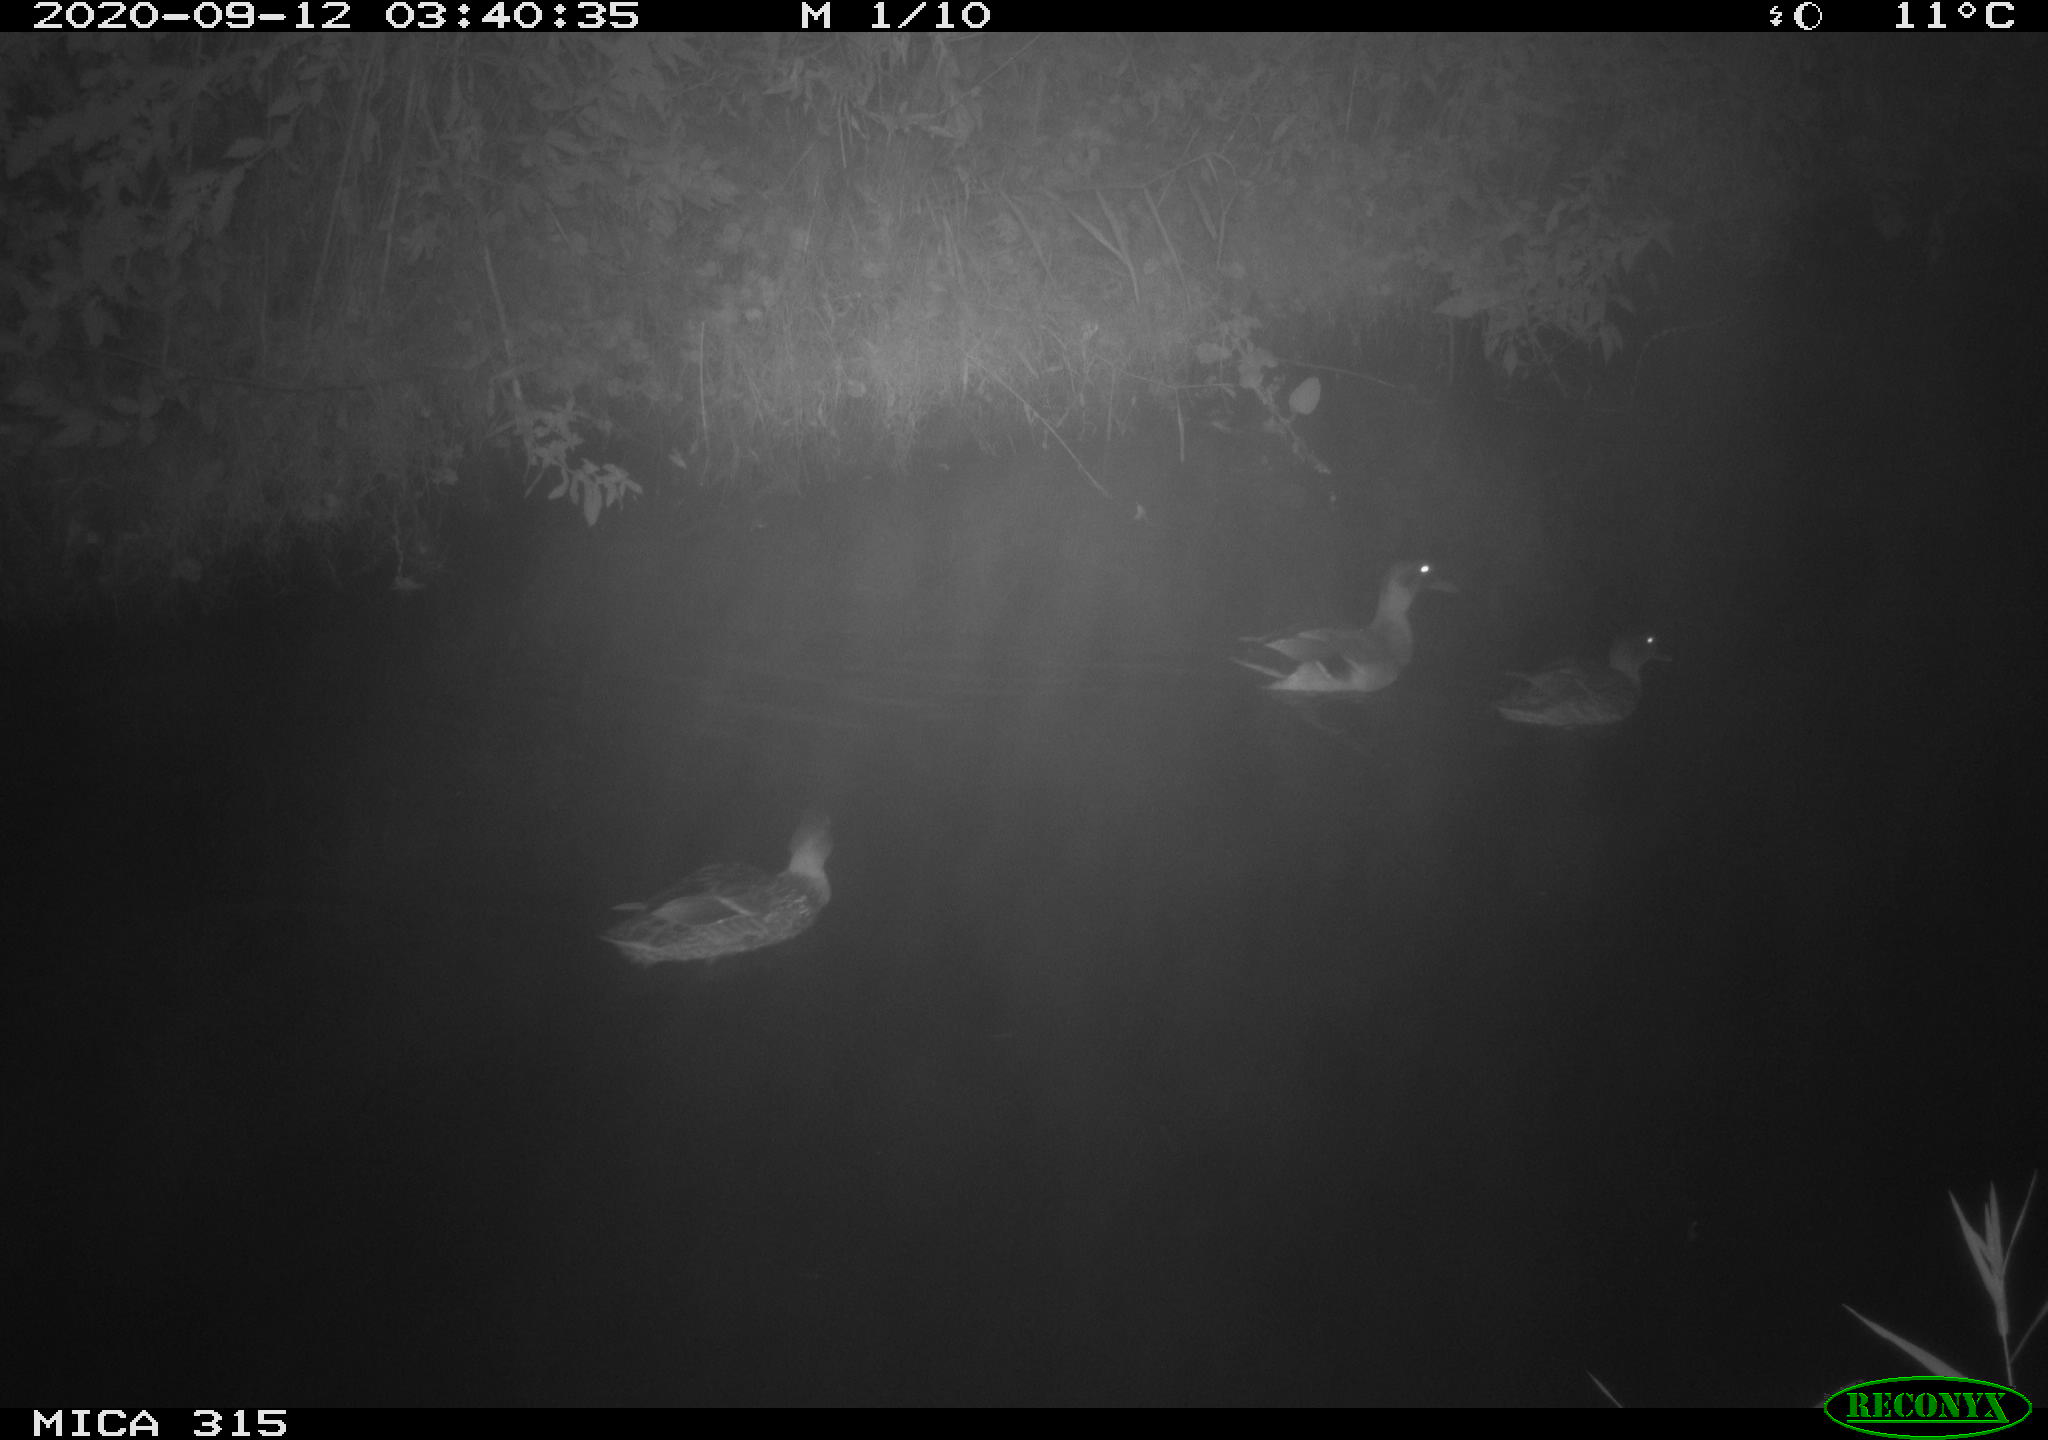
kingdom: Animalia
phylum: Chordata
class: Aves
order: Anseriformes
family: Anatidae
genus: Anas
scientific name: Anas platyrhynchos
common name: Mallard
